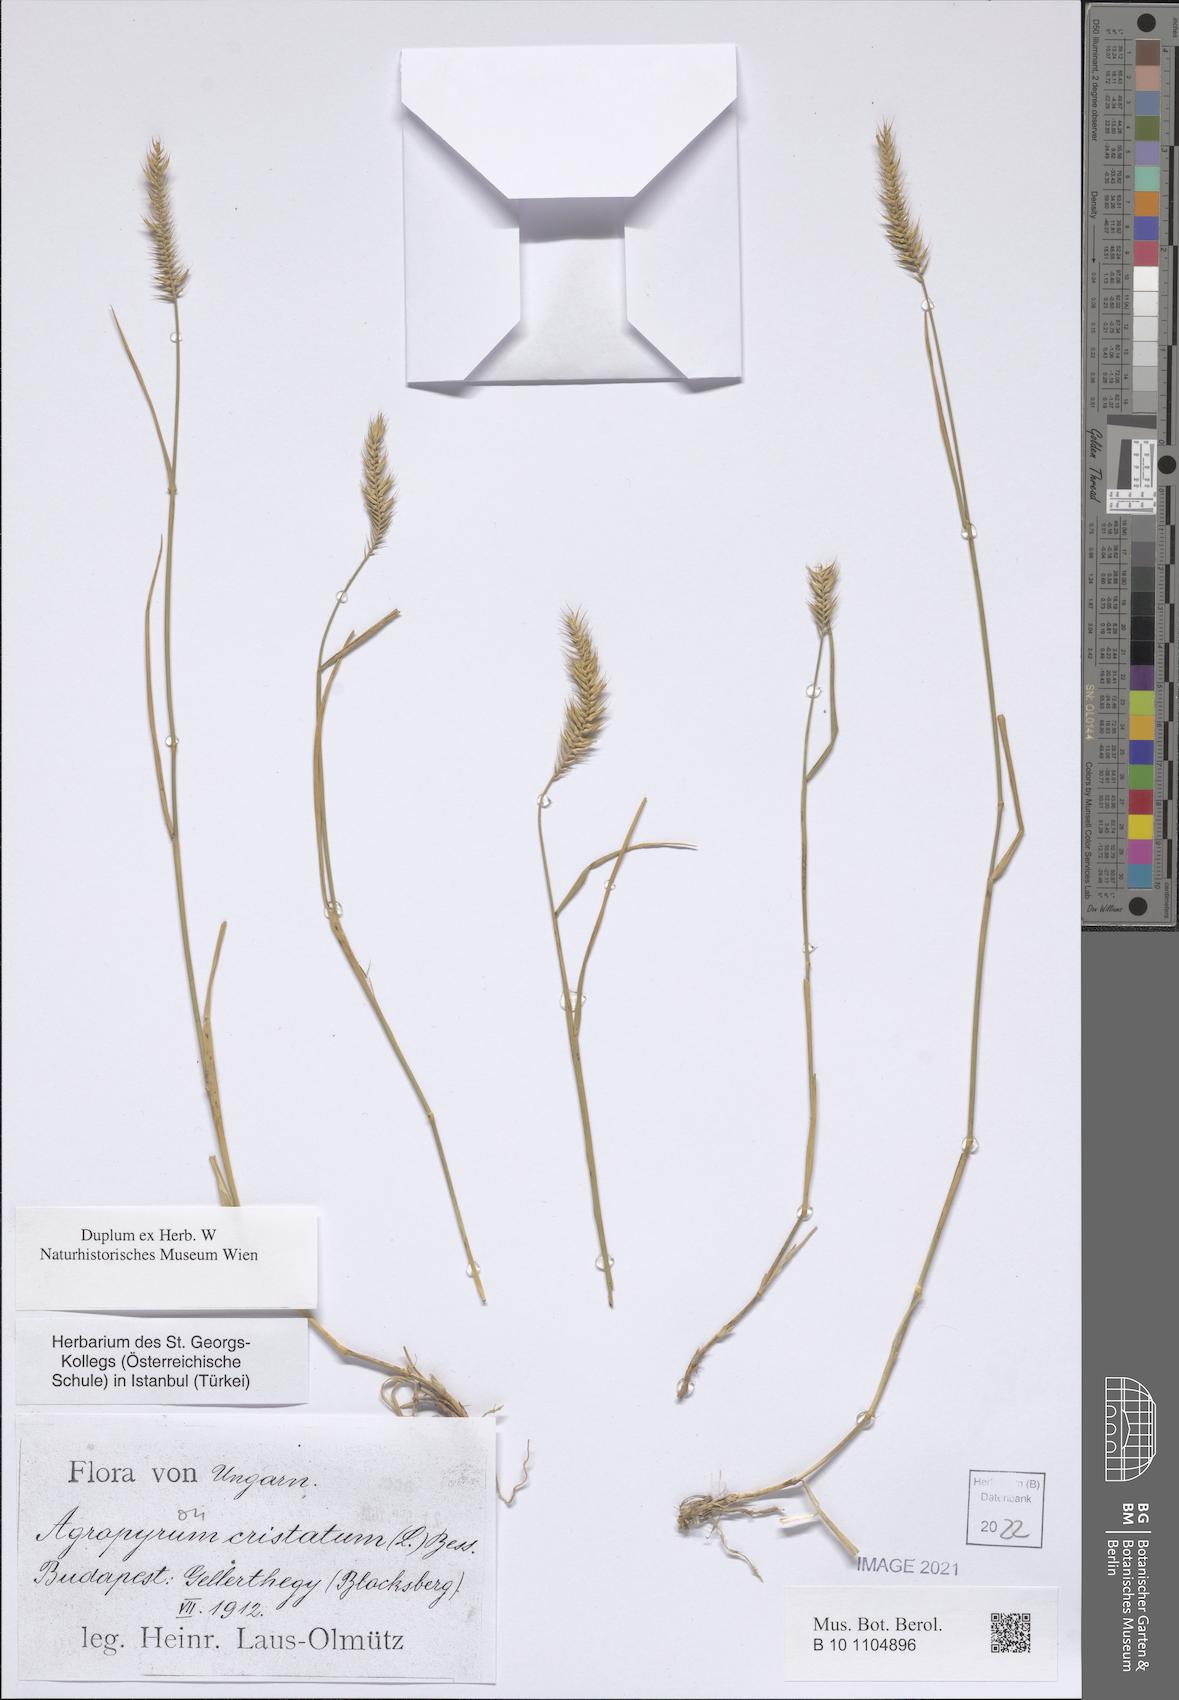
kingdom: Plantae
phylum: Tracheophyta
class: Liliopsida
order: Poales
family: Poaceae
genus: Agropyron
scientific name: Agropyron cristatum
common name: Crested wheatgrass
